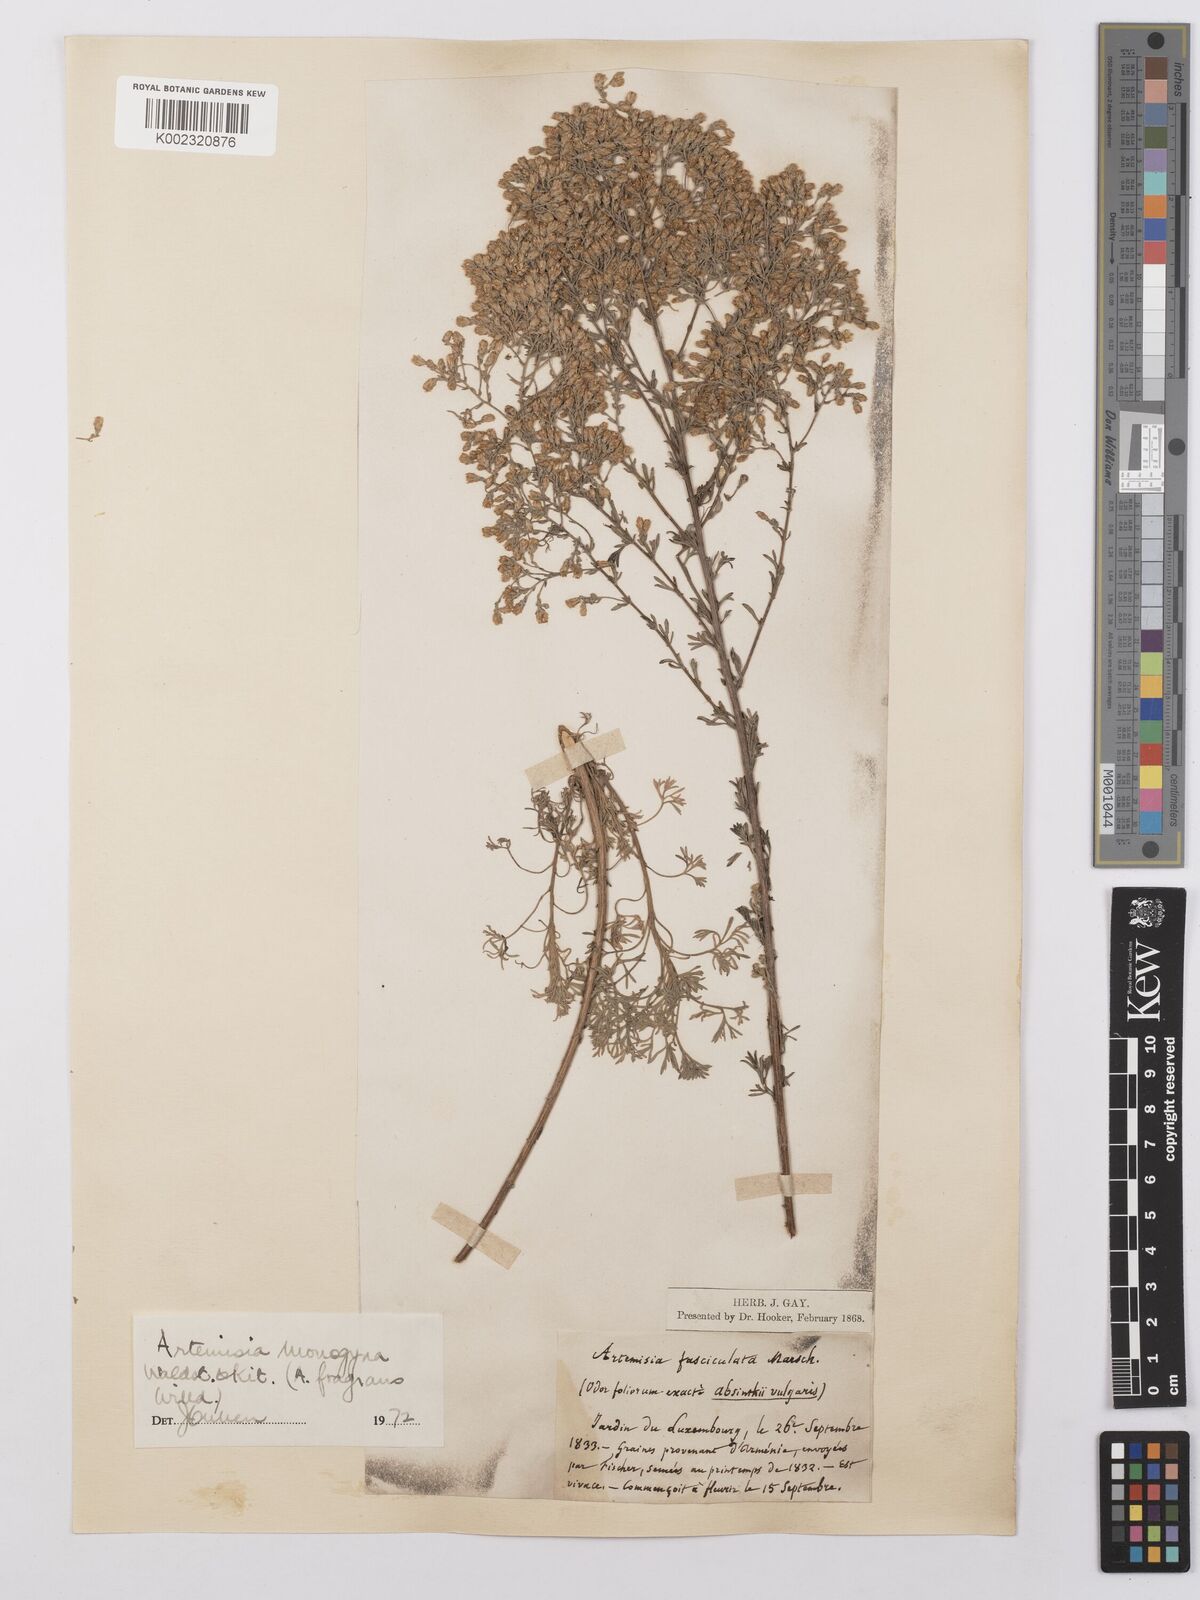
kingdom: Plantae
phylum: Tracheophyta
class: Magnoliopsida
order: Asterales
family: Asteraceae
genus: Artemisia
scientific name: Artemisia santonicum
